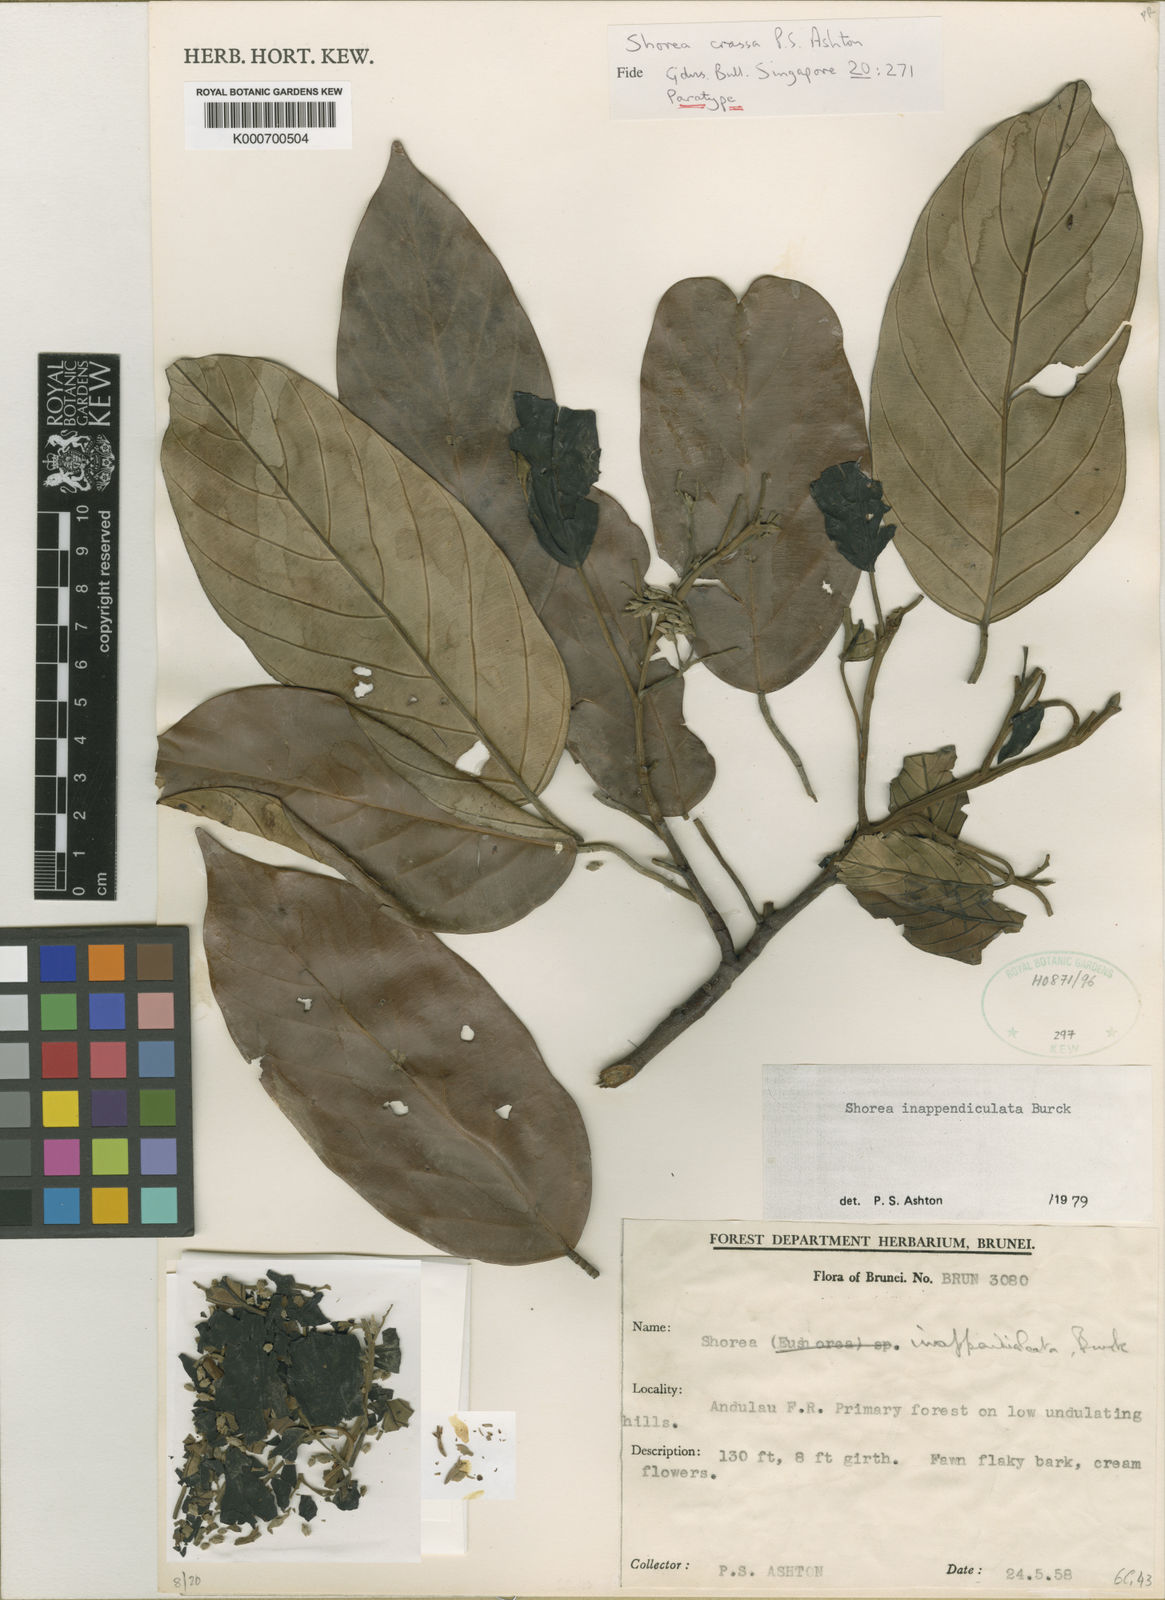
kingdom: Plantae
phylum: Tracheophyta
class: Magnoliopsida
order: Malvales
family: Dipterocarpaceae
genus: Shorea
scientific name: Shorea inappendiculata
